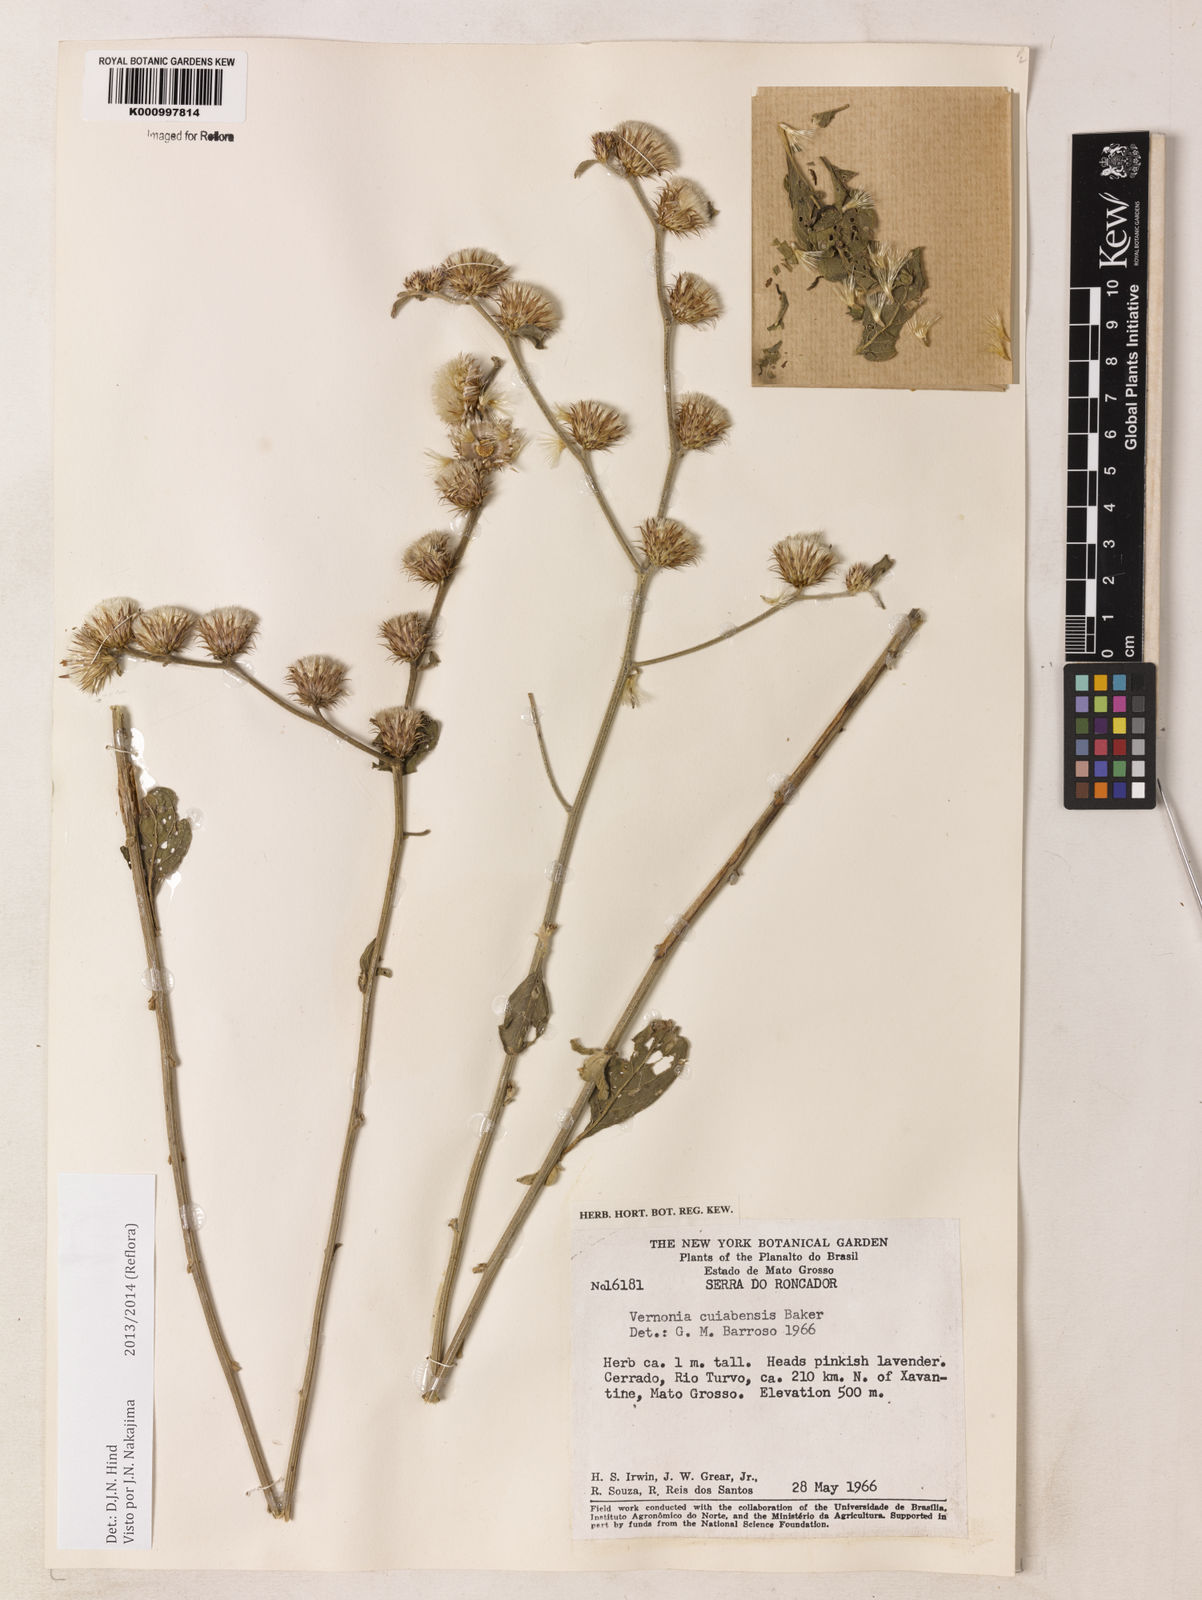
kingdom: Plantae
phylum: Tracheophyta
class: Magnoliopsida
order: Asterales
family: Asteraceae
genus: Lepidaploa
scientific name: Lepidaploa cuiabensis
